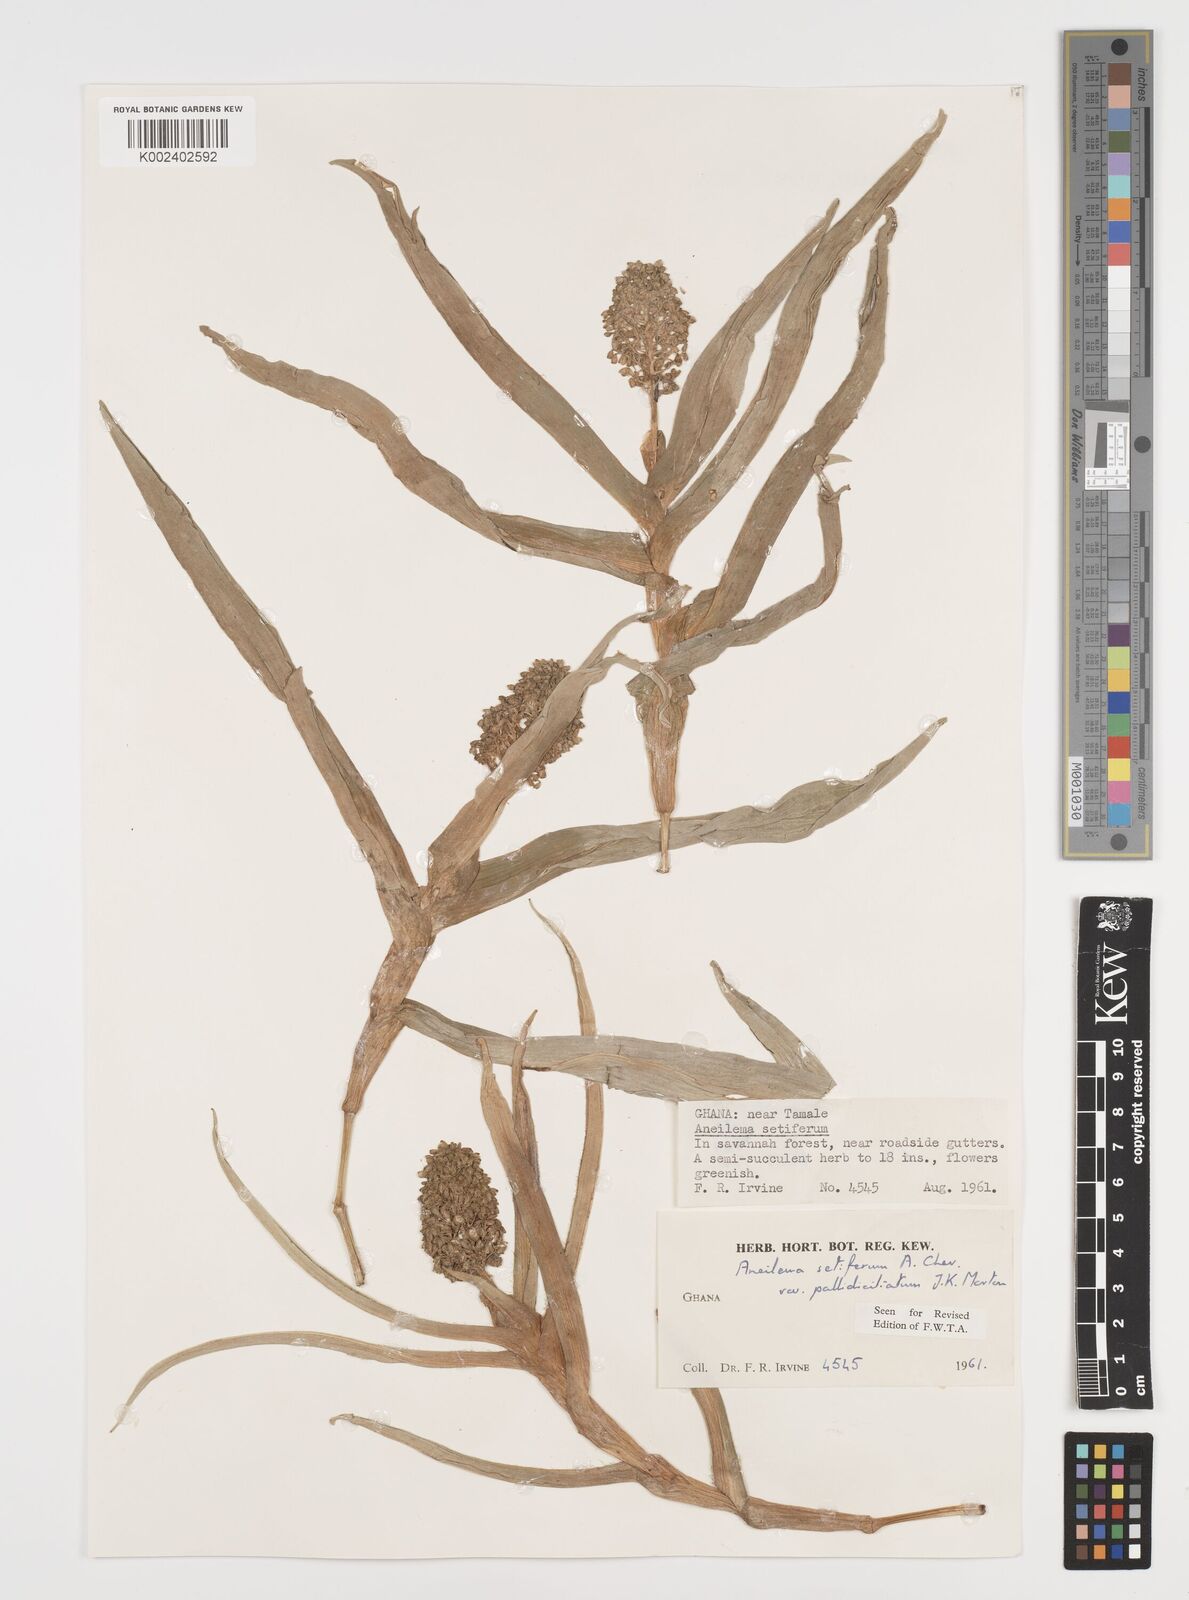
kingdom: Plantae
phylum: Tracheophyta
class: Liliopsida
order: Commelinales
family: Commelinaceae
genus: Aneilema
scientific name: Aneilema setiferum
